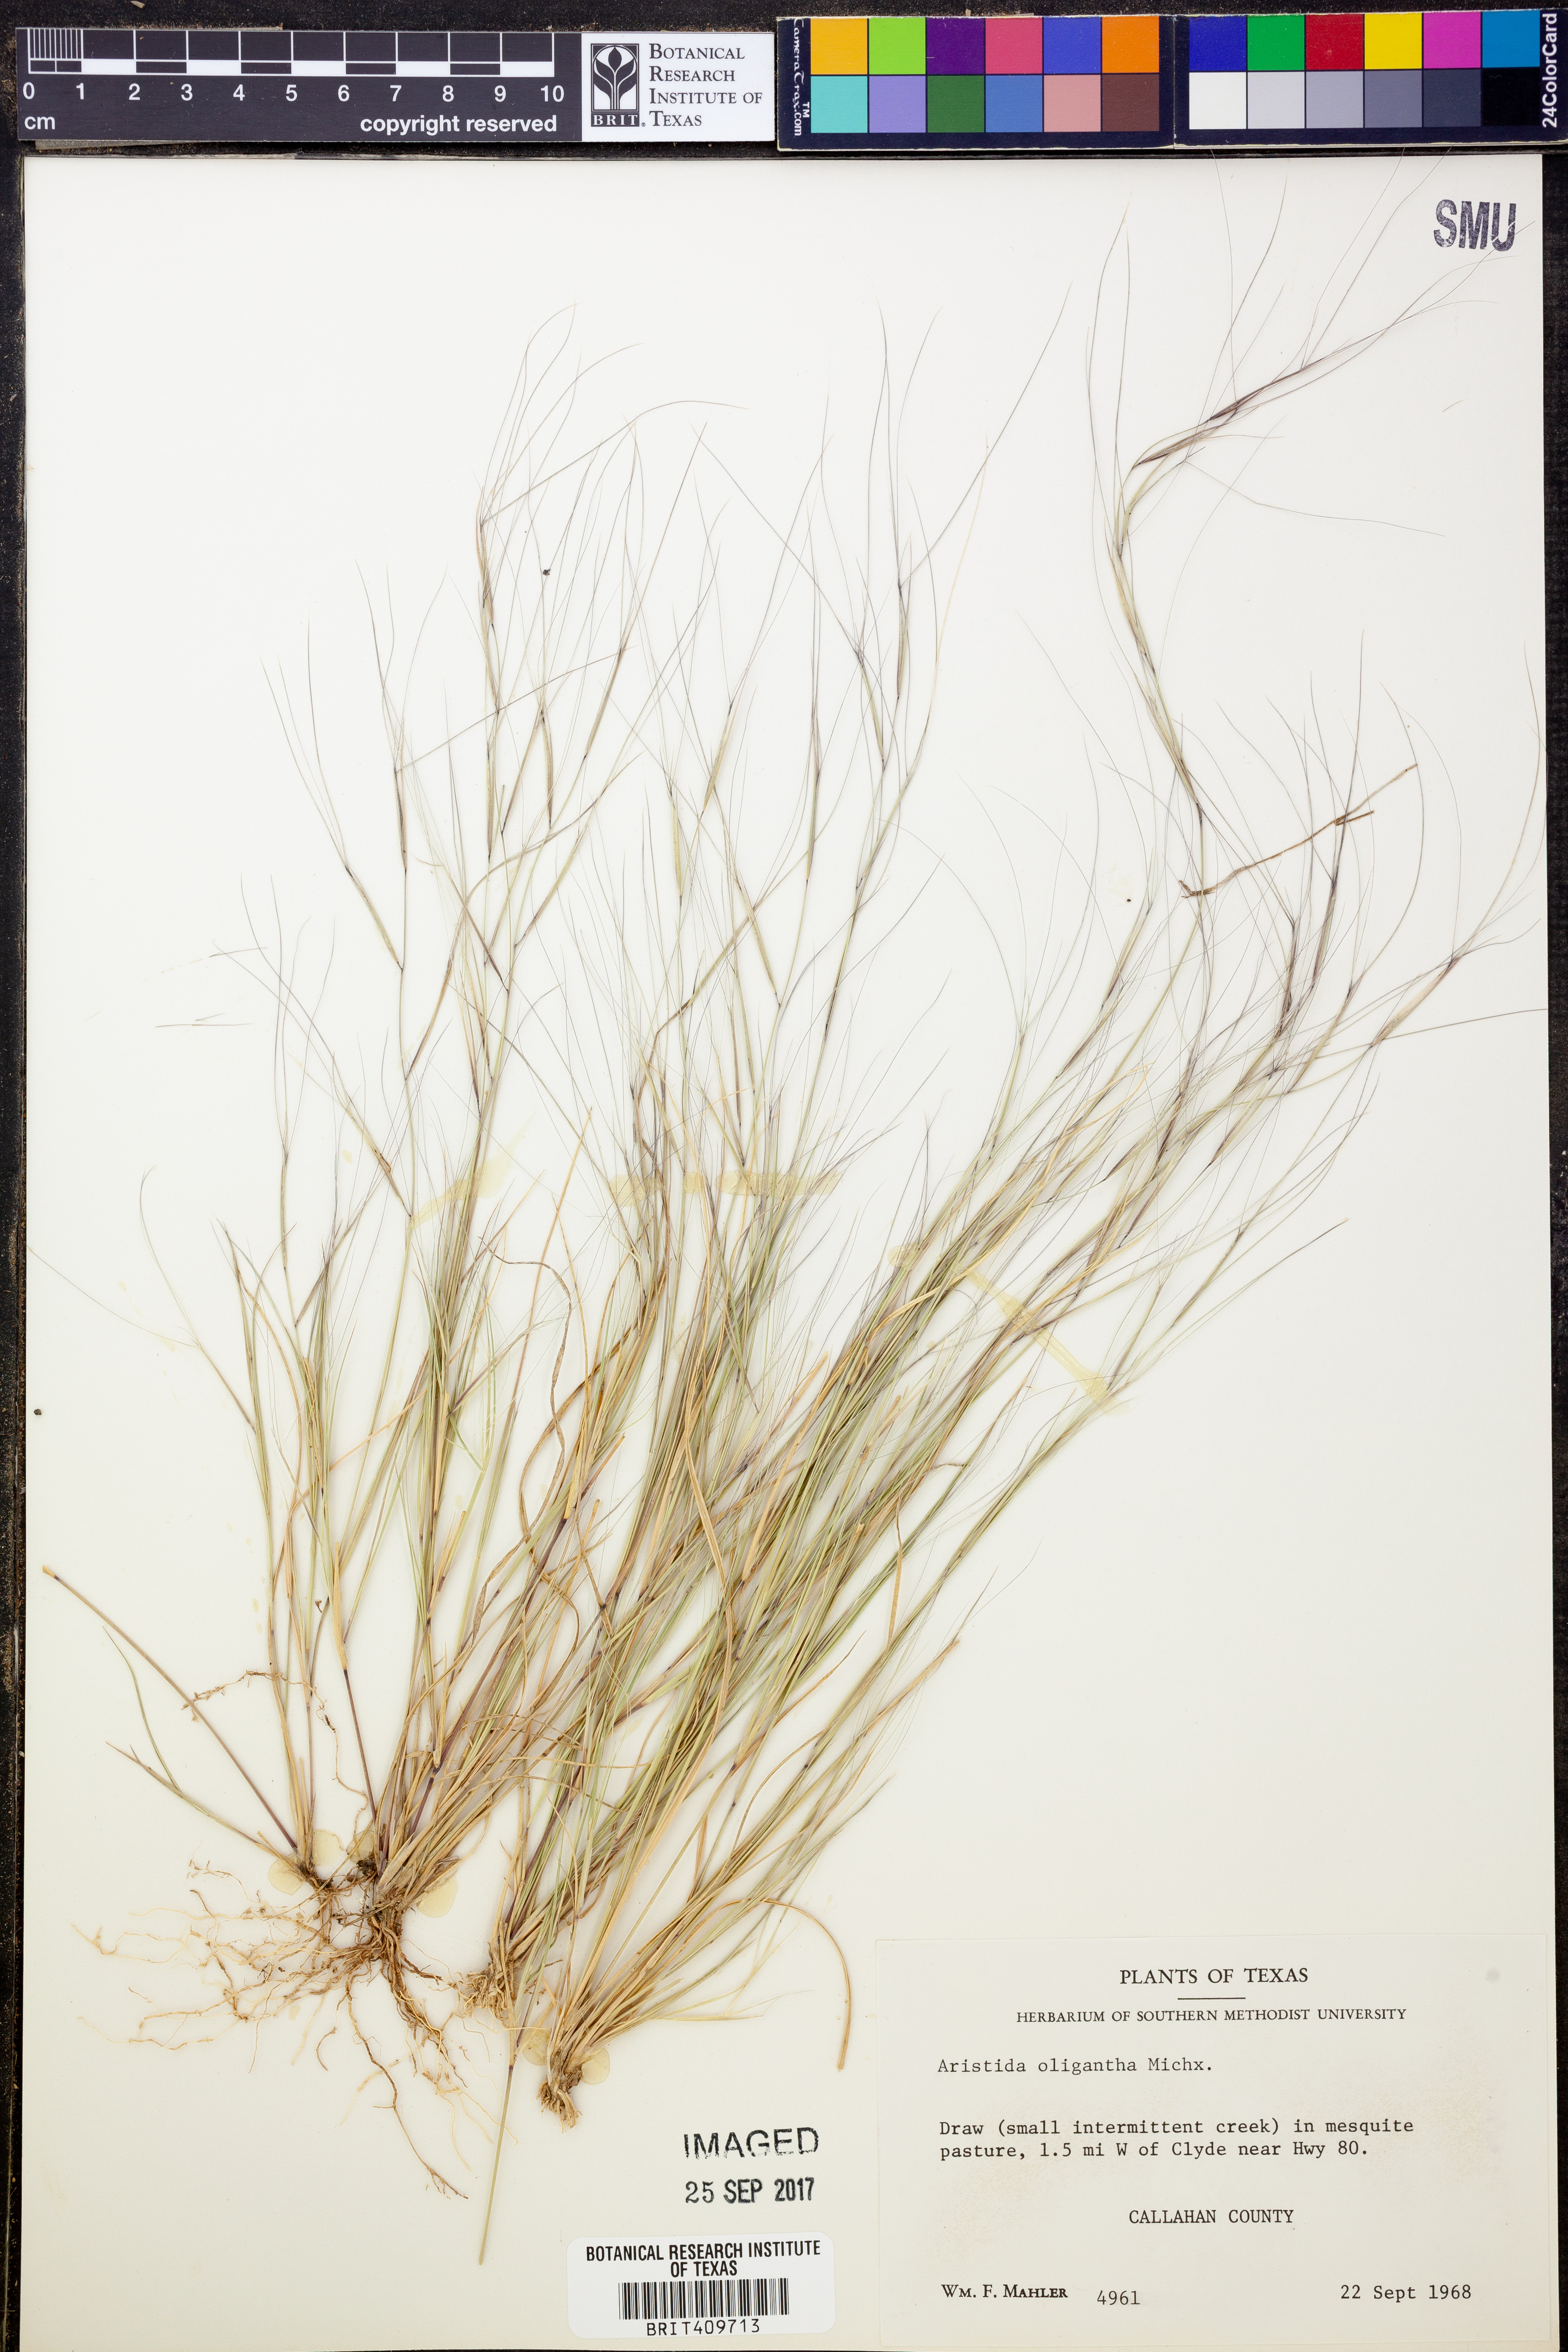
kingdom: Plantae
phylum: Tracheophyta
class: Liliopsida
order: Poales
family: Poaceae
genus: Aristida
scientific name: Aristida oligantha
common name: Few-flowered aristida
